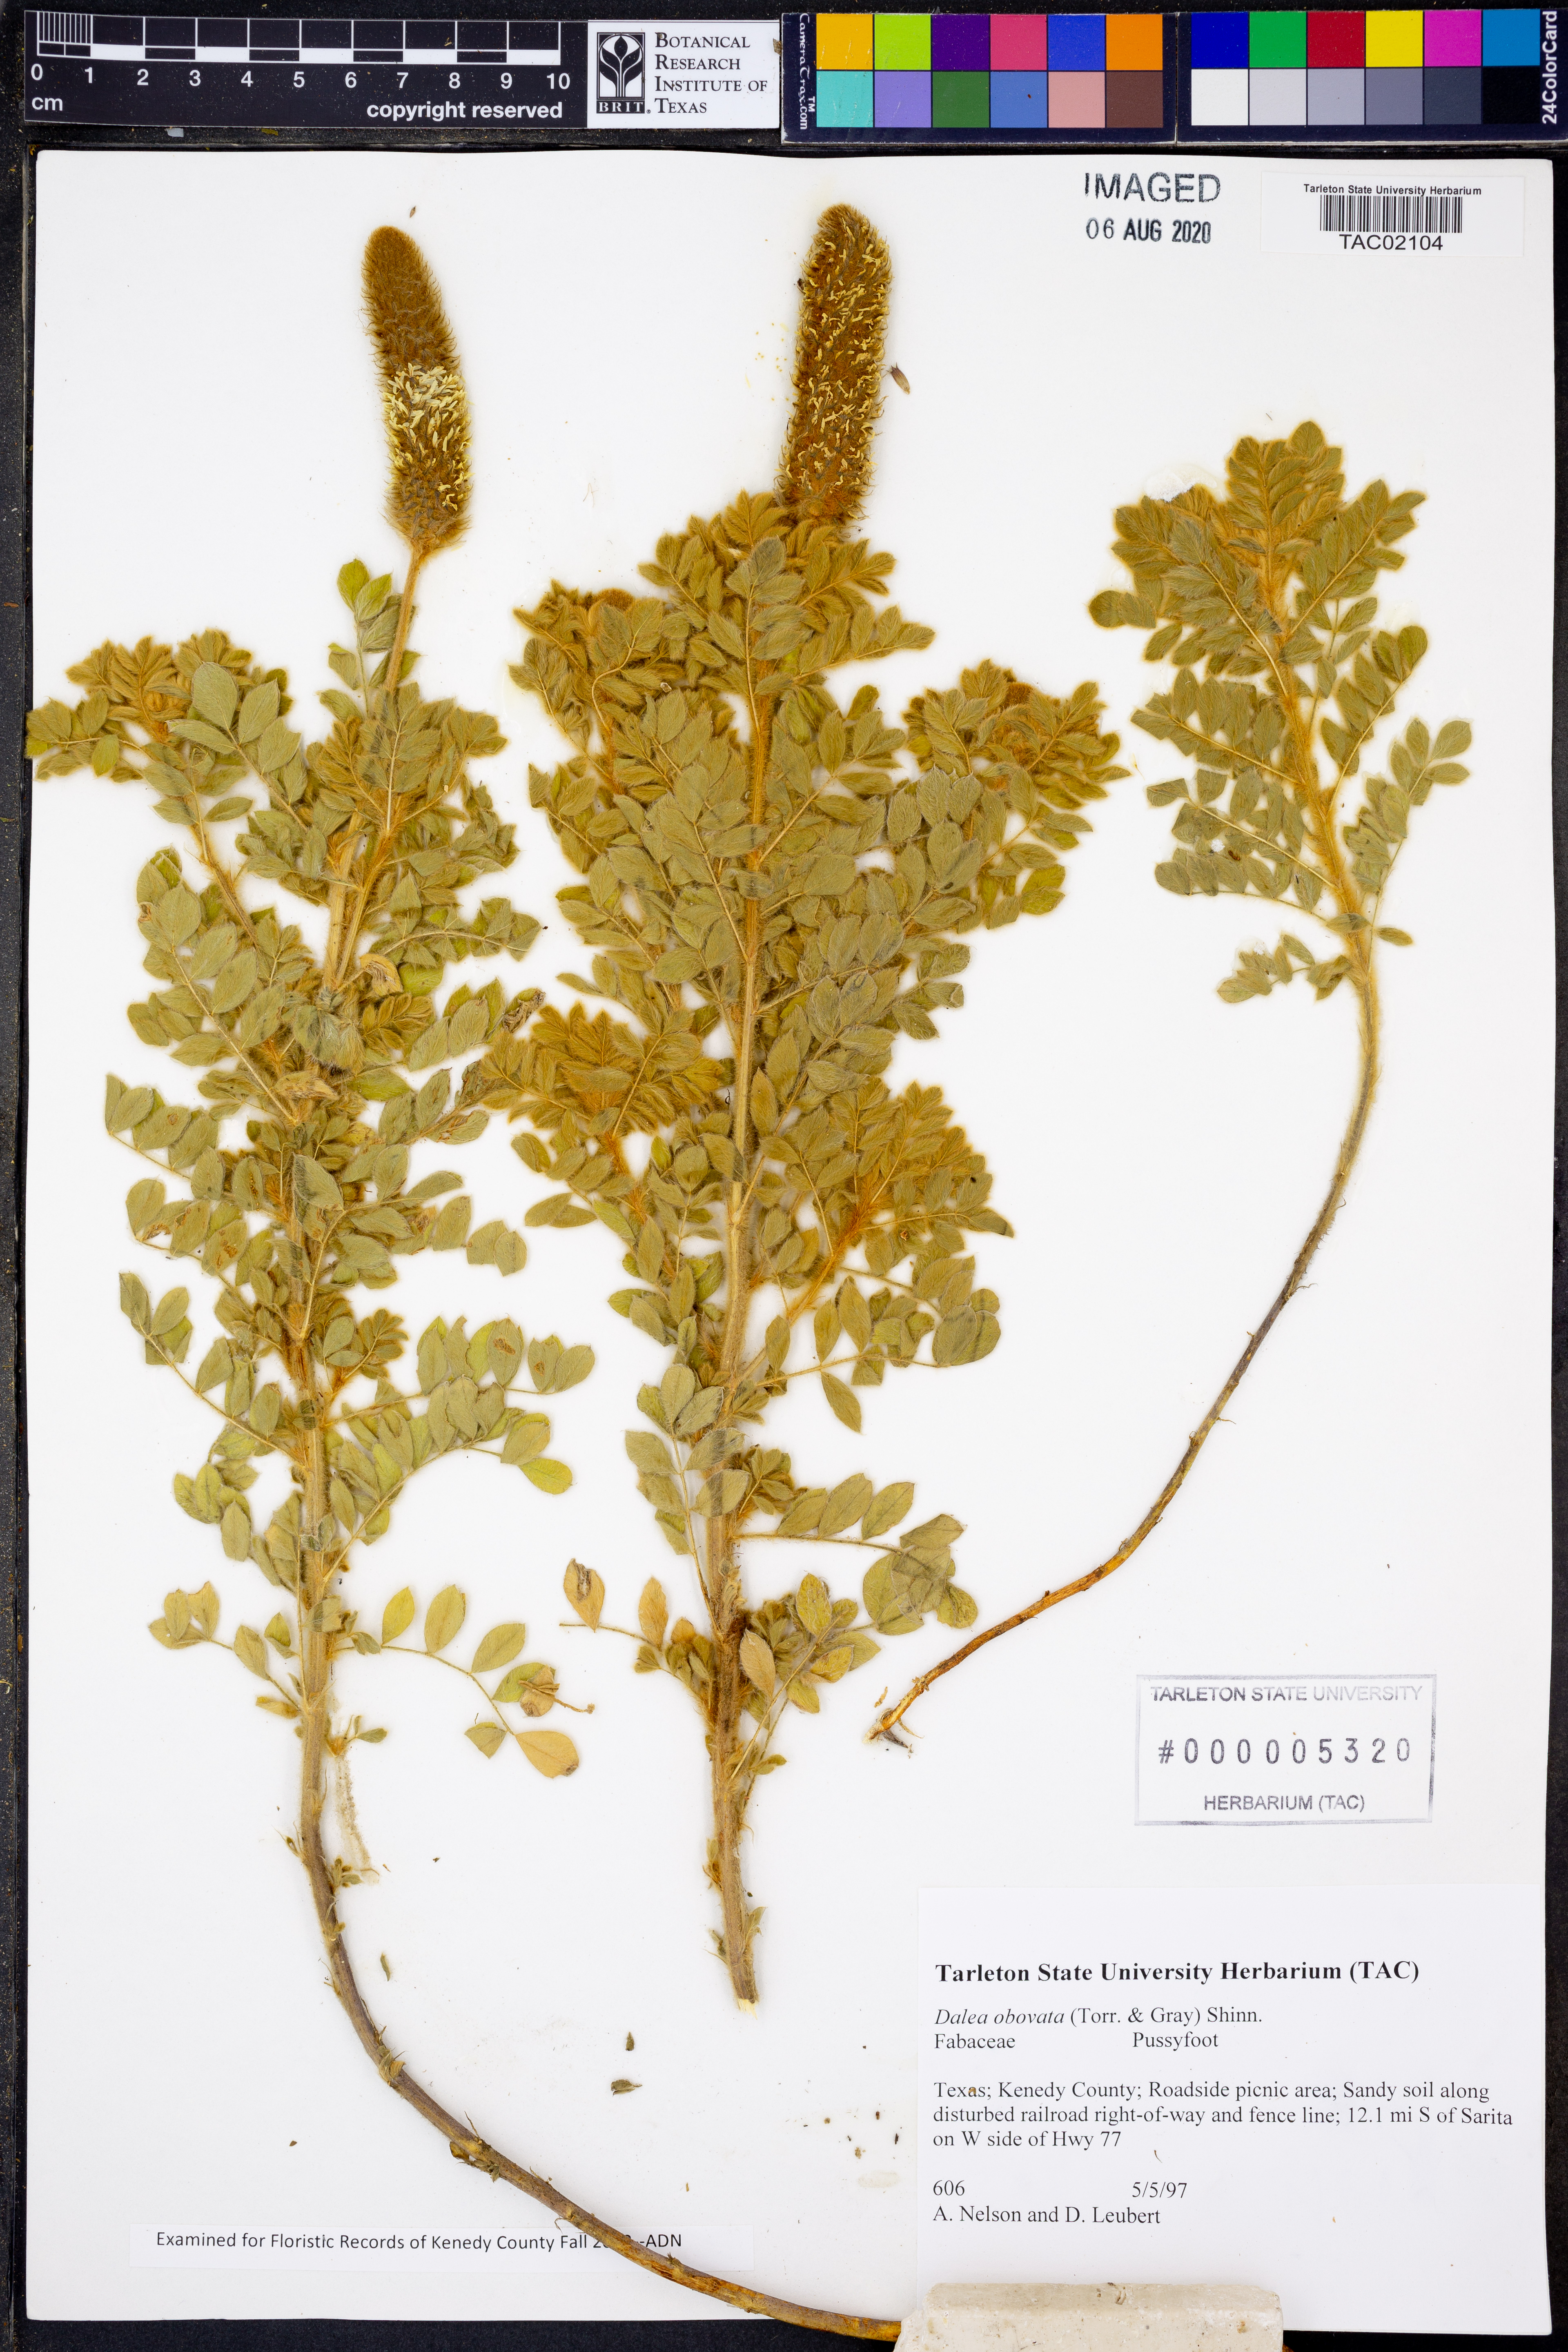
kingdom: Plantae
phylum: Tracheophyta
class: Magnoliopsida
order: Fabales
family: Fabaceae
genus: Dalea
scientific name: Dalea obovata
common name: Pussyfoot
